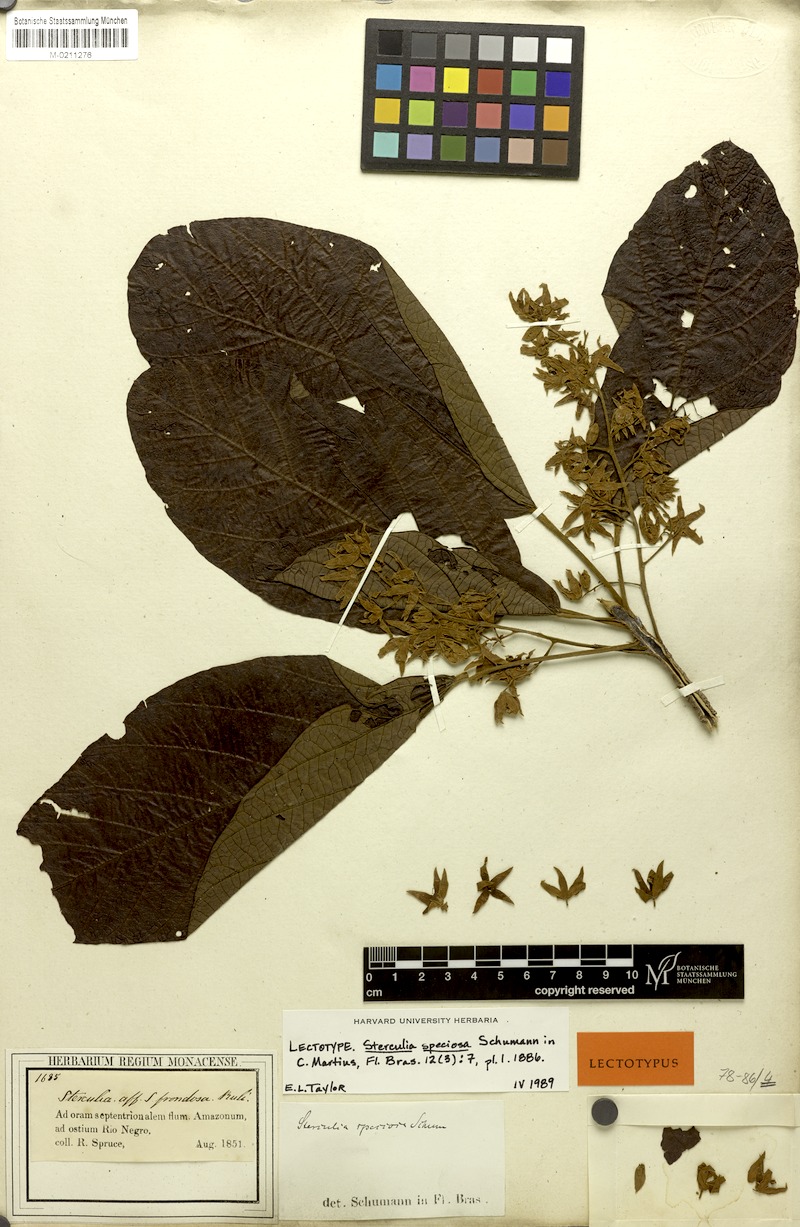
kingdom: Plantae
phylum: Tracheophyta
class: Magnoliopsida
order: Malvales
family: Malvaceae
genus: Sterculia
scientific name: Sterculia speciosa
